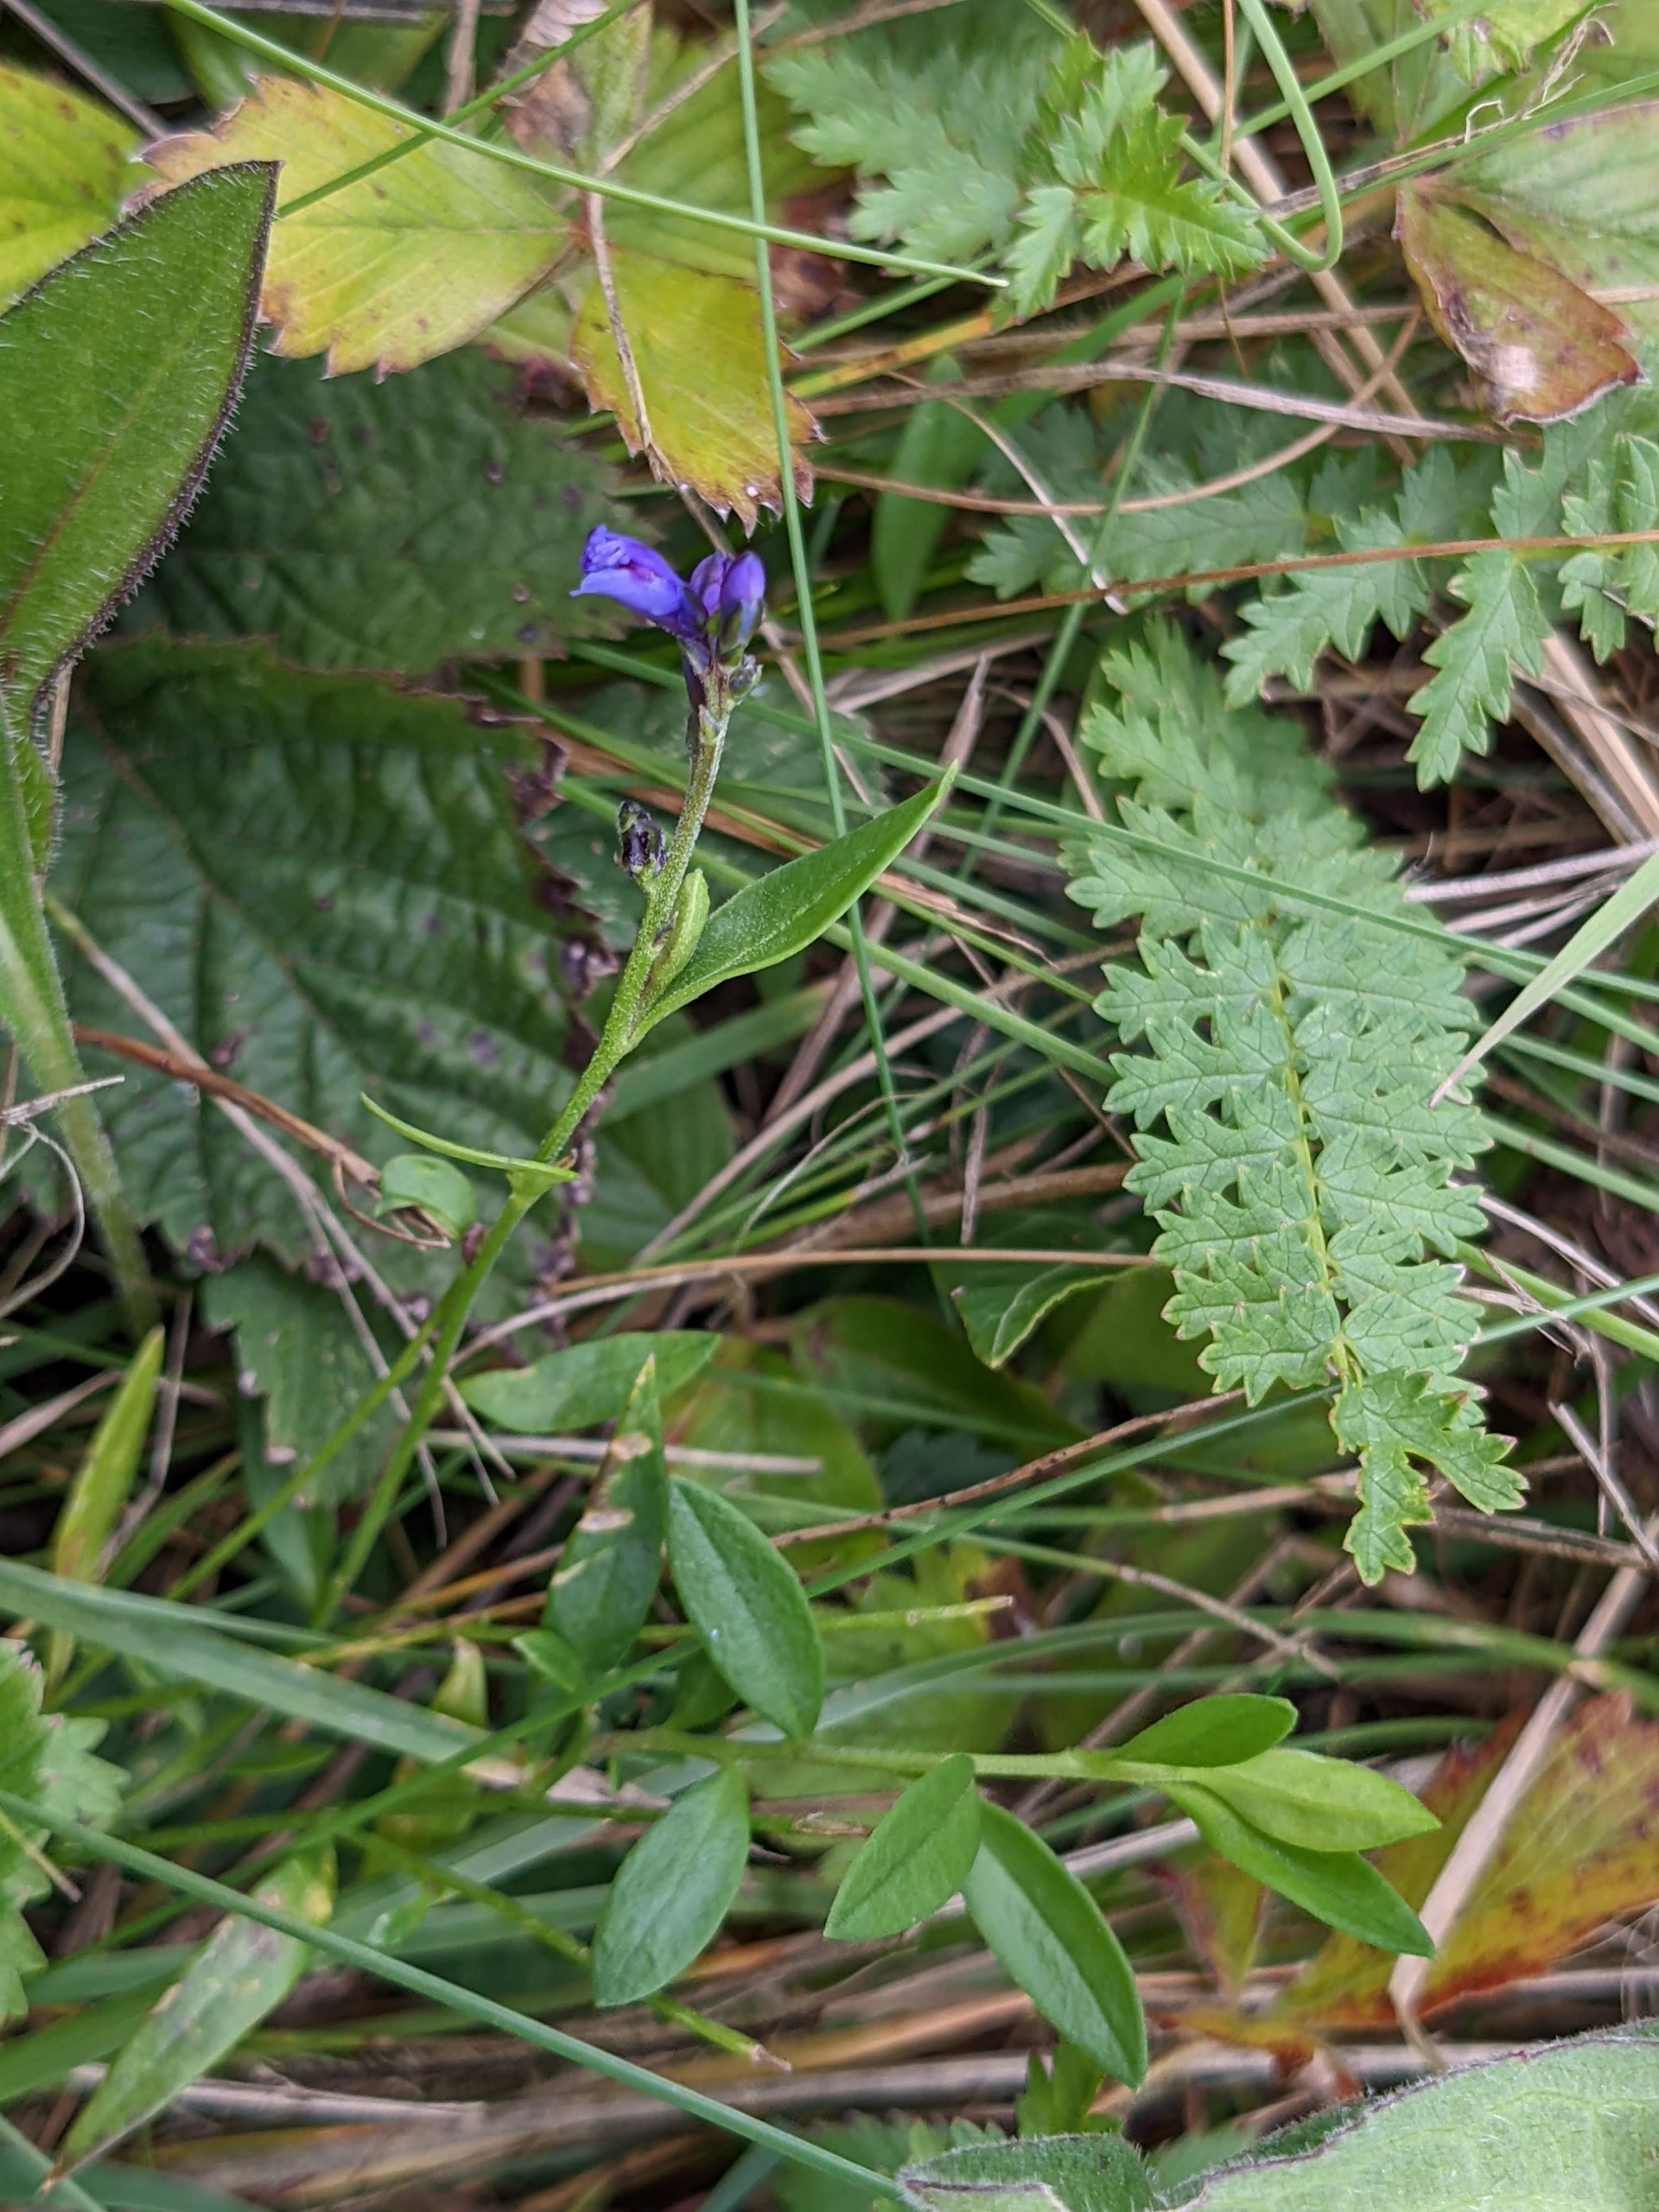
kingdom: Plantae
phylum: Tracheophyta
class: Magnoliopsida
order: Fabales
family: Polygalaceae
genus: Polygala
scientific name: Polygala vulgaris
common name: Almindelig mælkeurt
